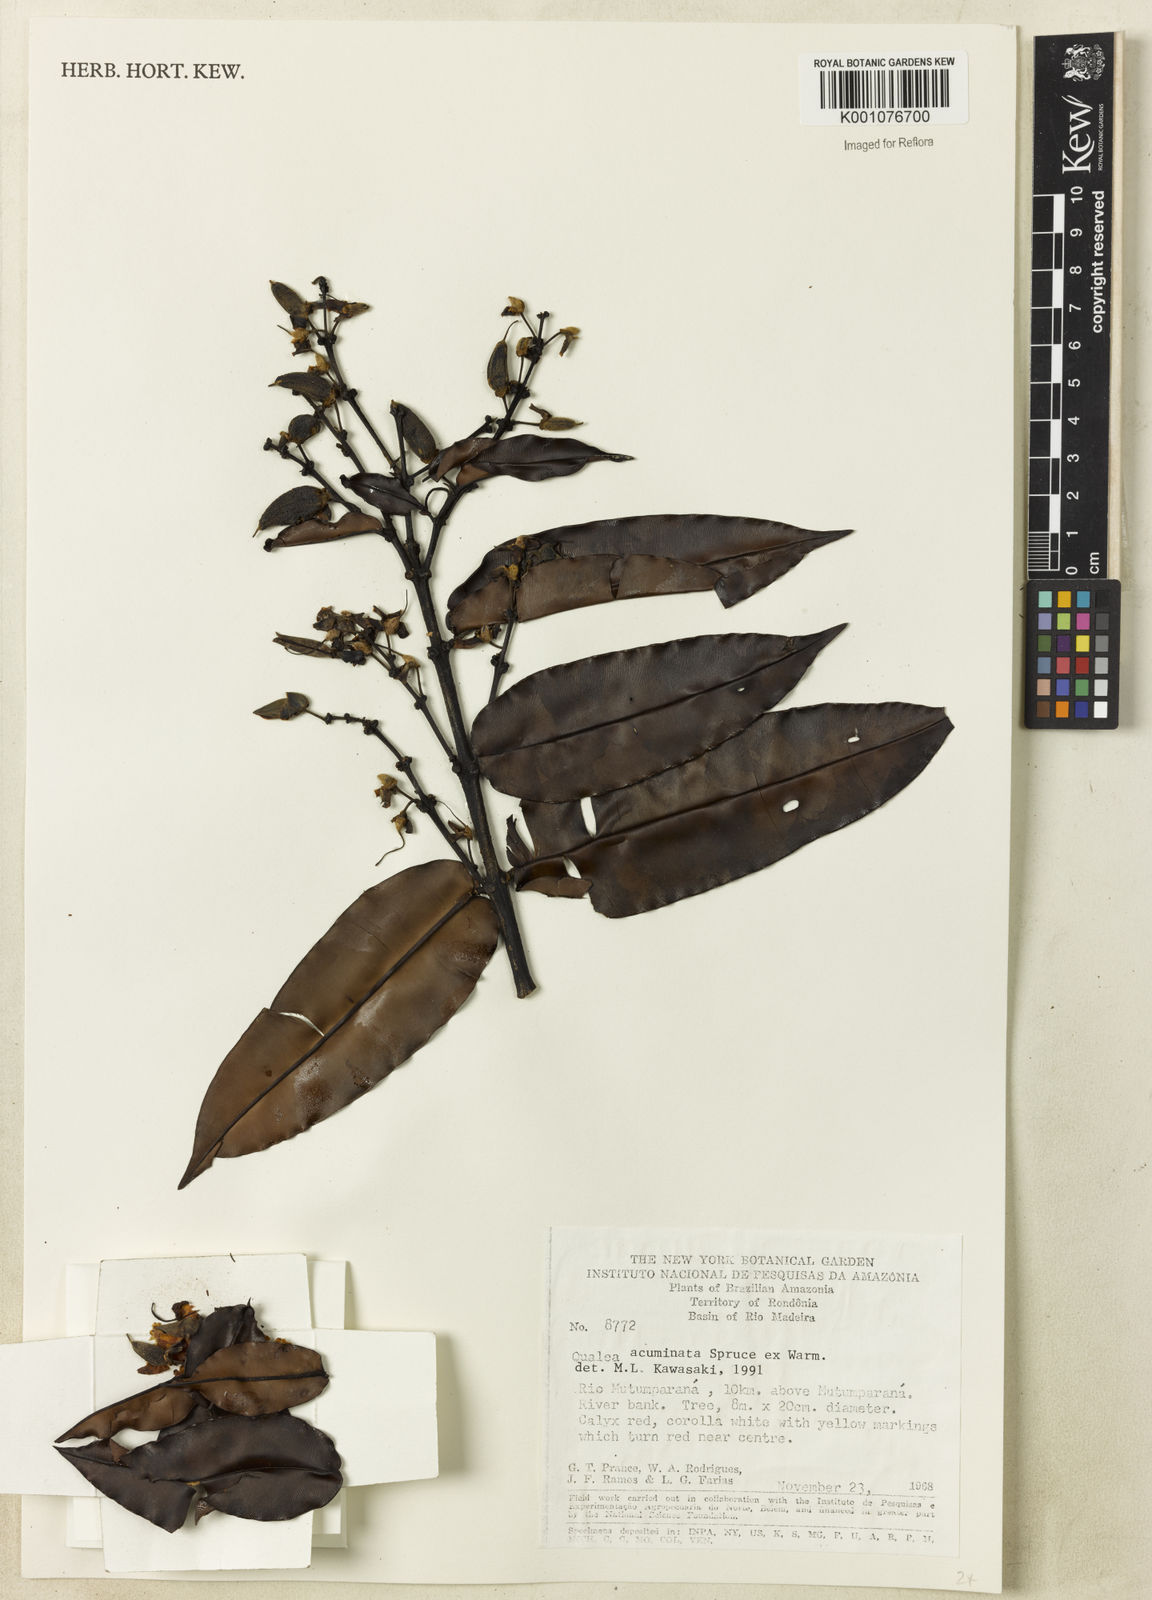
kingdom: Plantae
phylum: Tracheophyta
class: Magnoliopsida
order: Myrtales
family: Vochysiaceae
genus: Qualea
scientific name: Qualea acuminata
